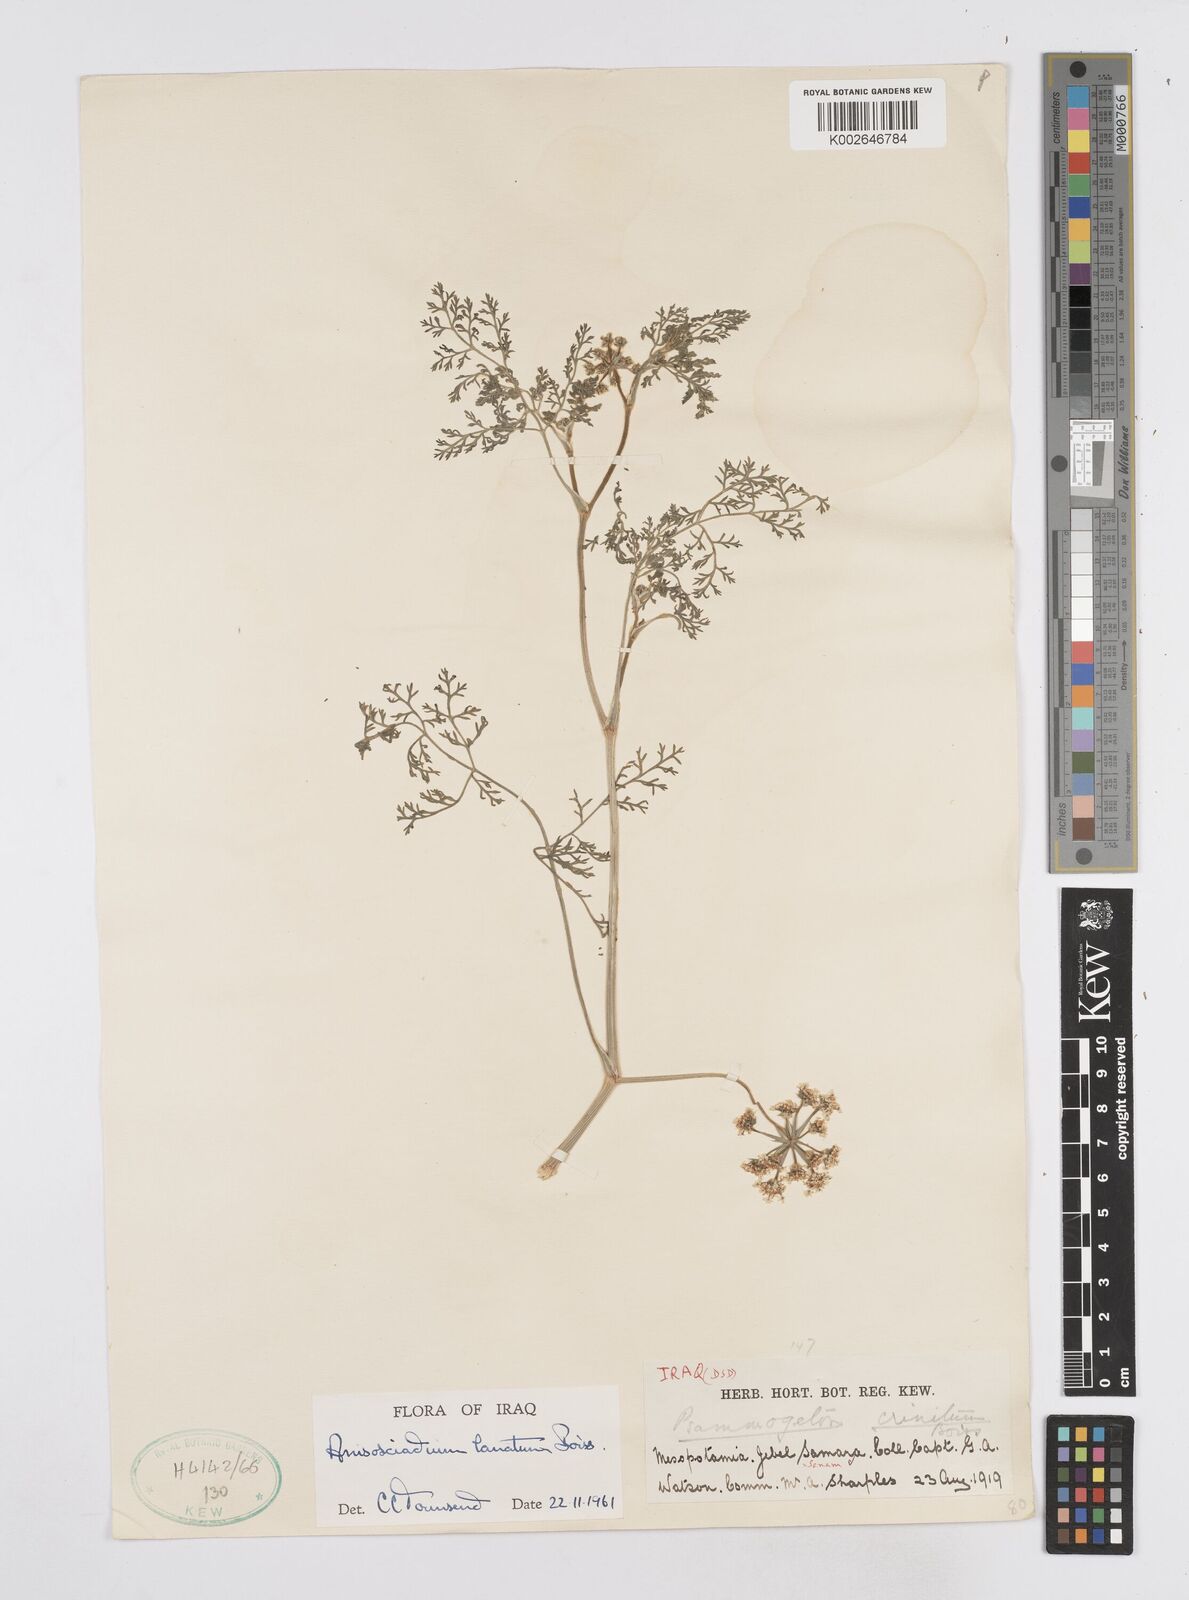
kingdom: Plantae
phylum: Tracheophyta
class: Magnoliopsida
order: Apiales
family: Apiaceae
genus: Anisosciadium
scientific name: Anisosciadium lanatum
